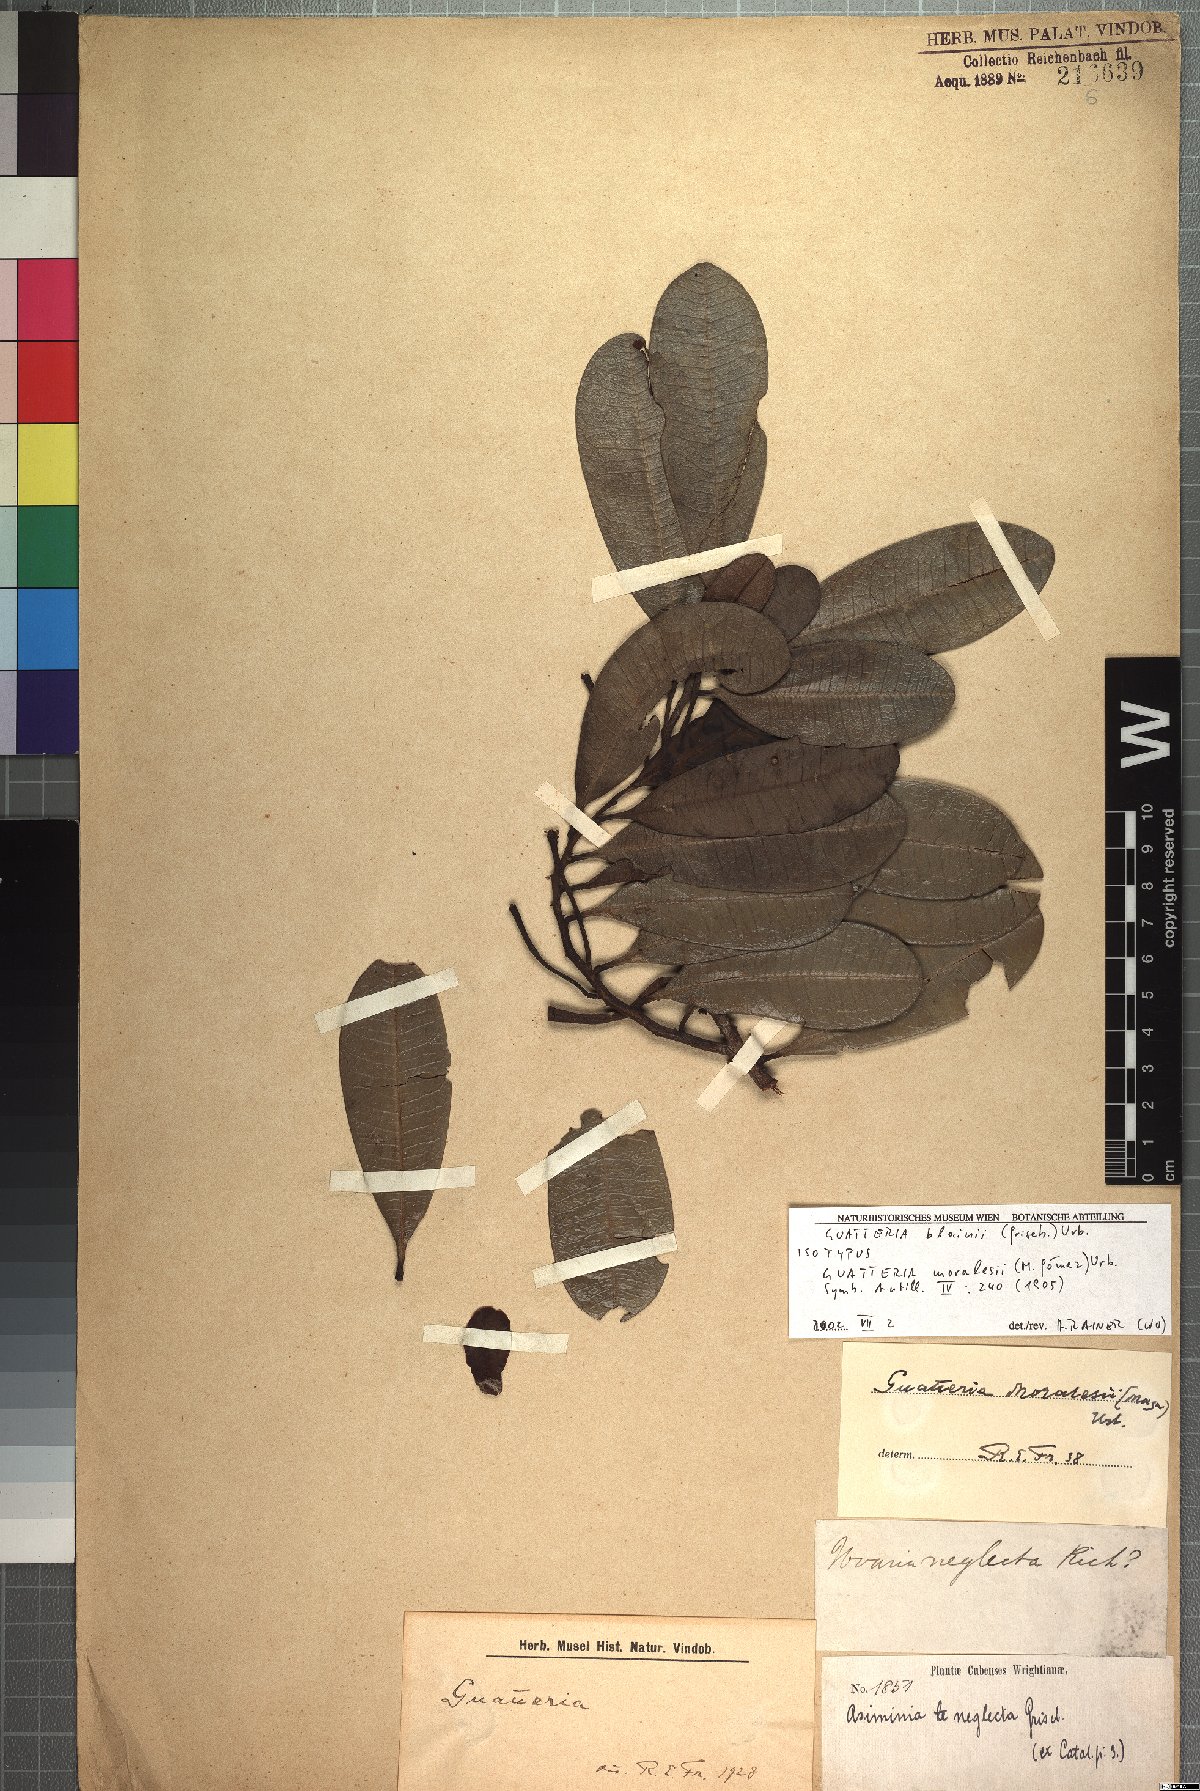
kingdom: Plantae
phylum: Tracheophyta
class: Magnoliopsida
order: Magnoliales
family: Annonaceae
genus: Guatteria
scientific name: Guatteria blainii
